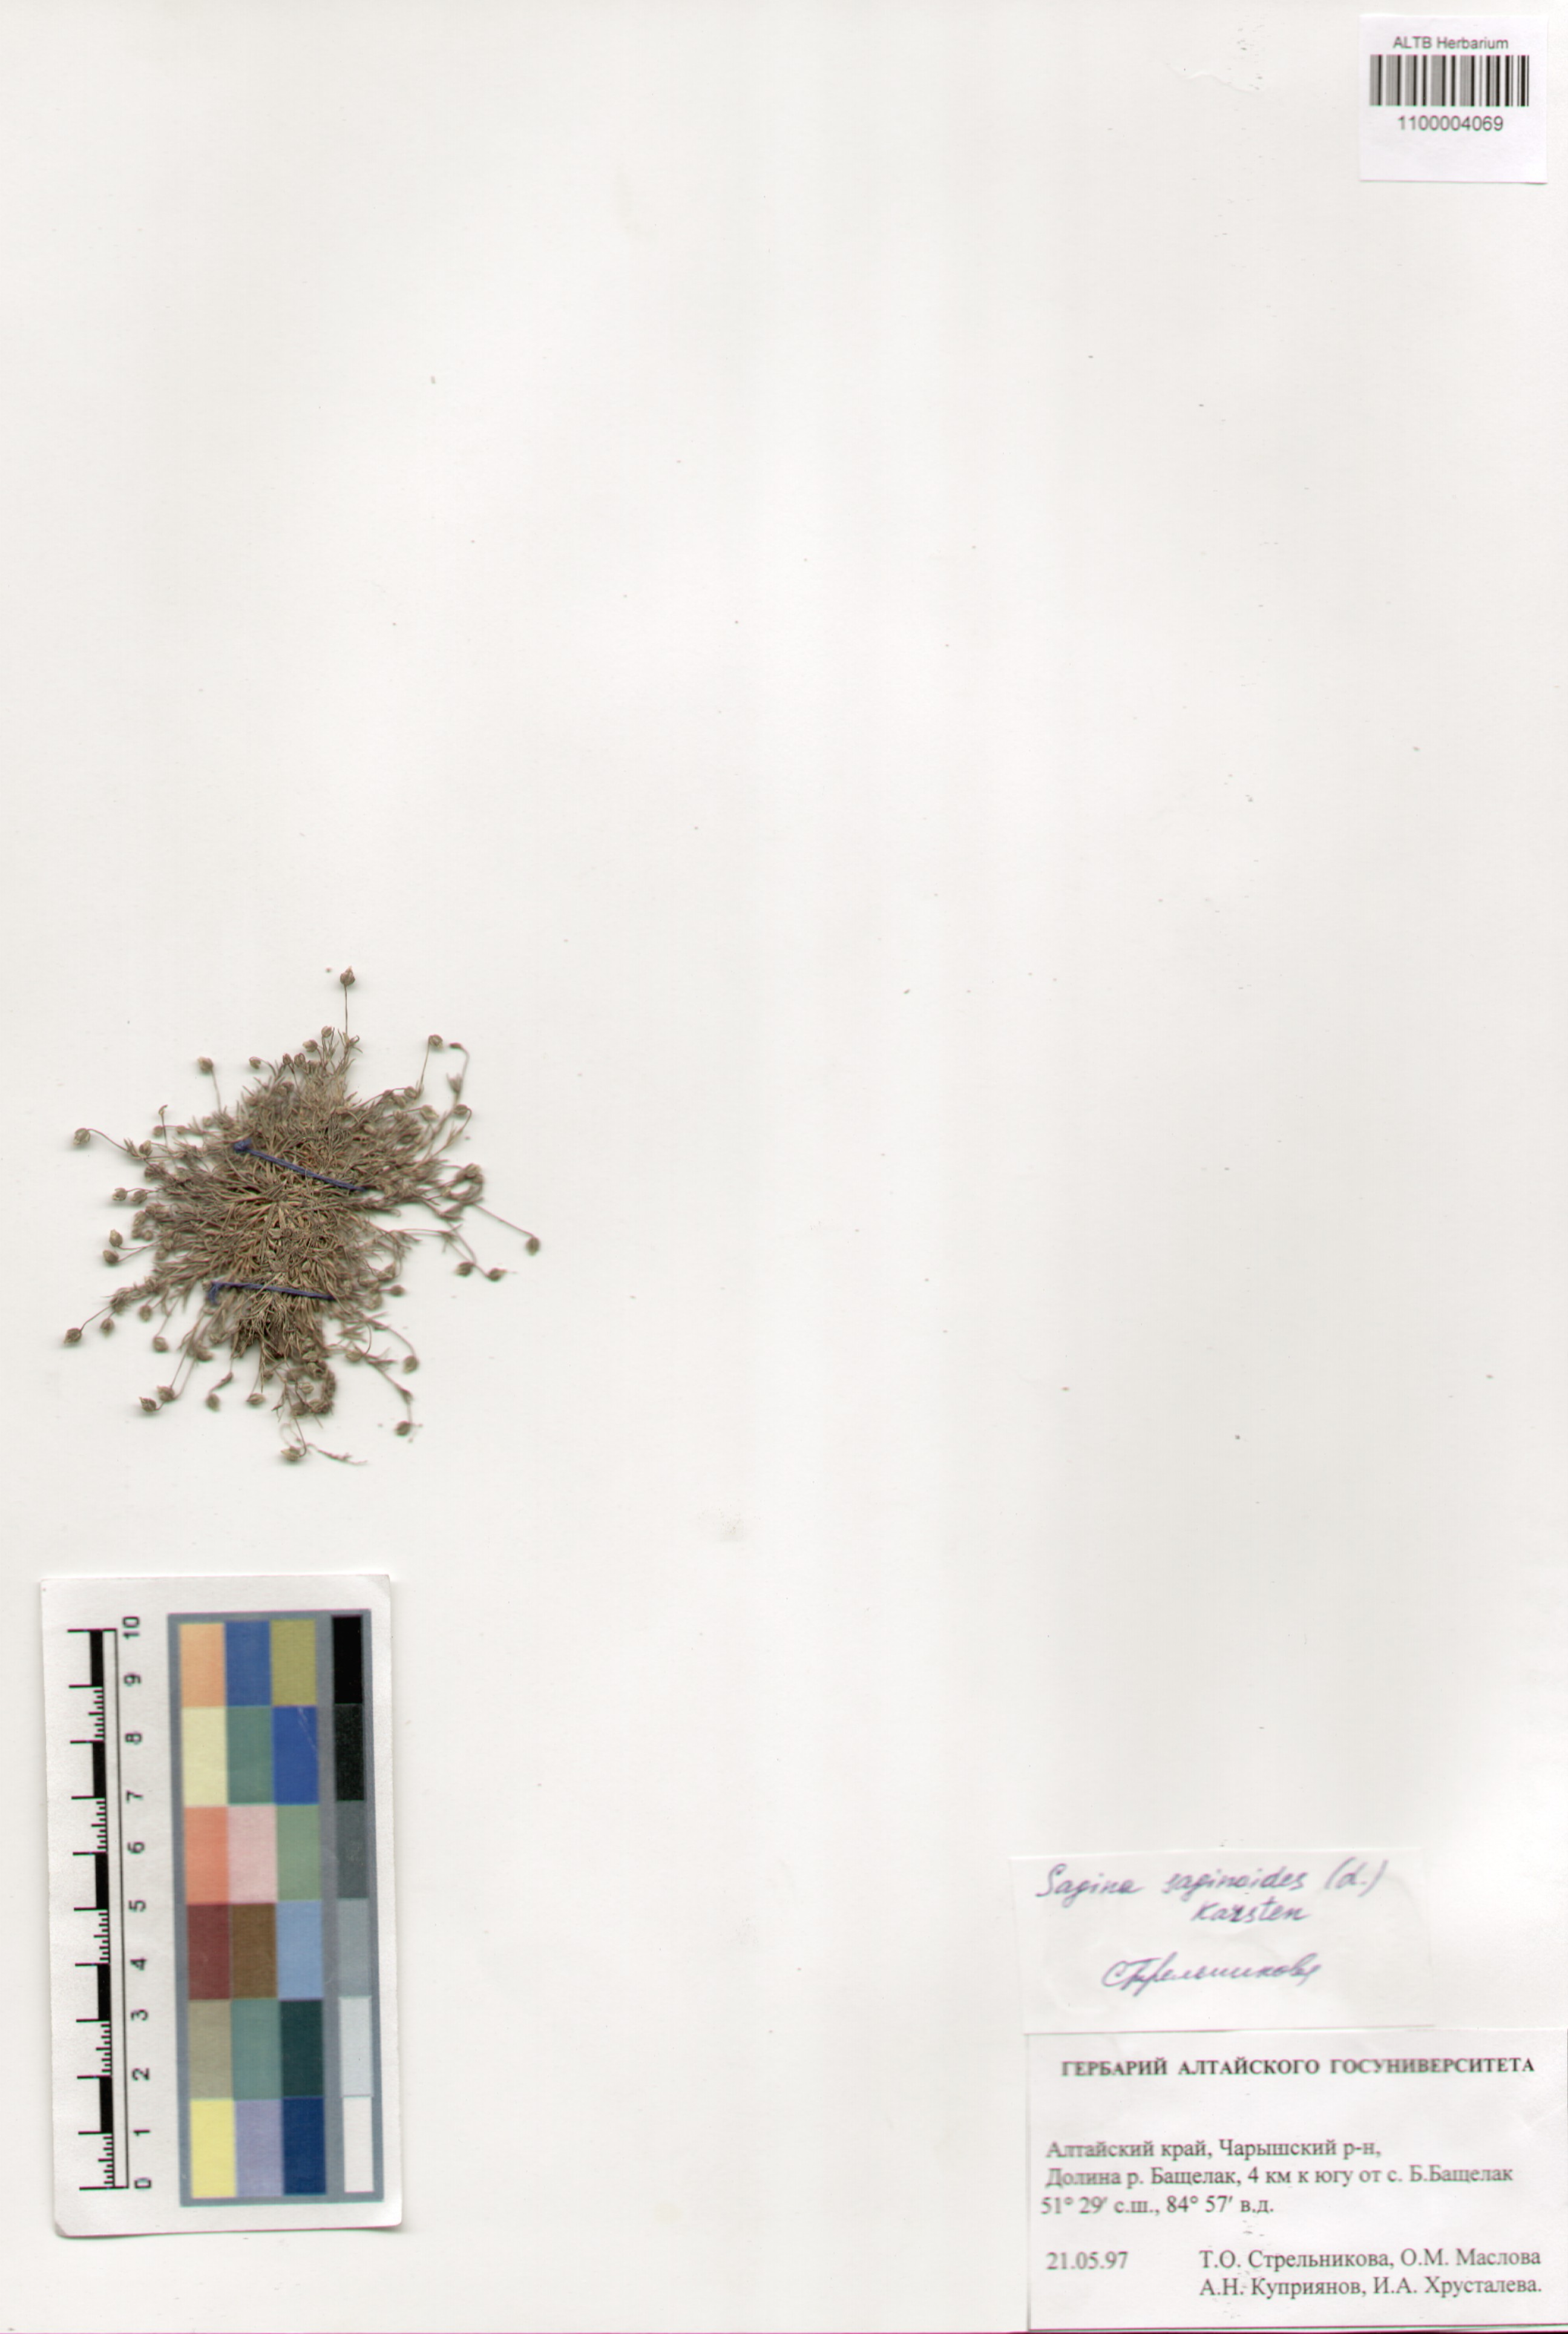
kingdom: Plantae
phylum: Tracheophyta
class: Magnoliopsida
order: Caryophyllales
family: Caryophyllaceae
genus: Sagina
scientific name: Sagina saginoides
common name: Alpine pearlwort
